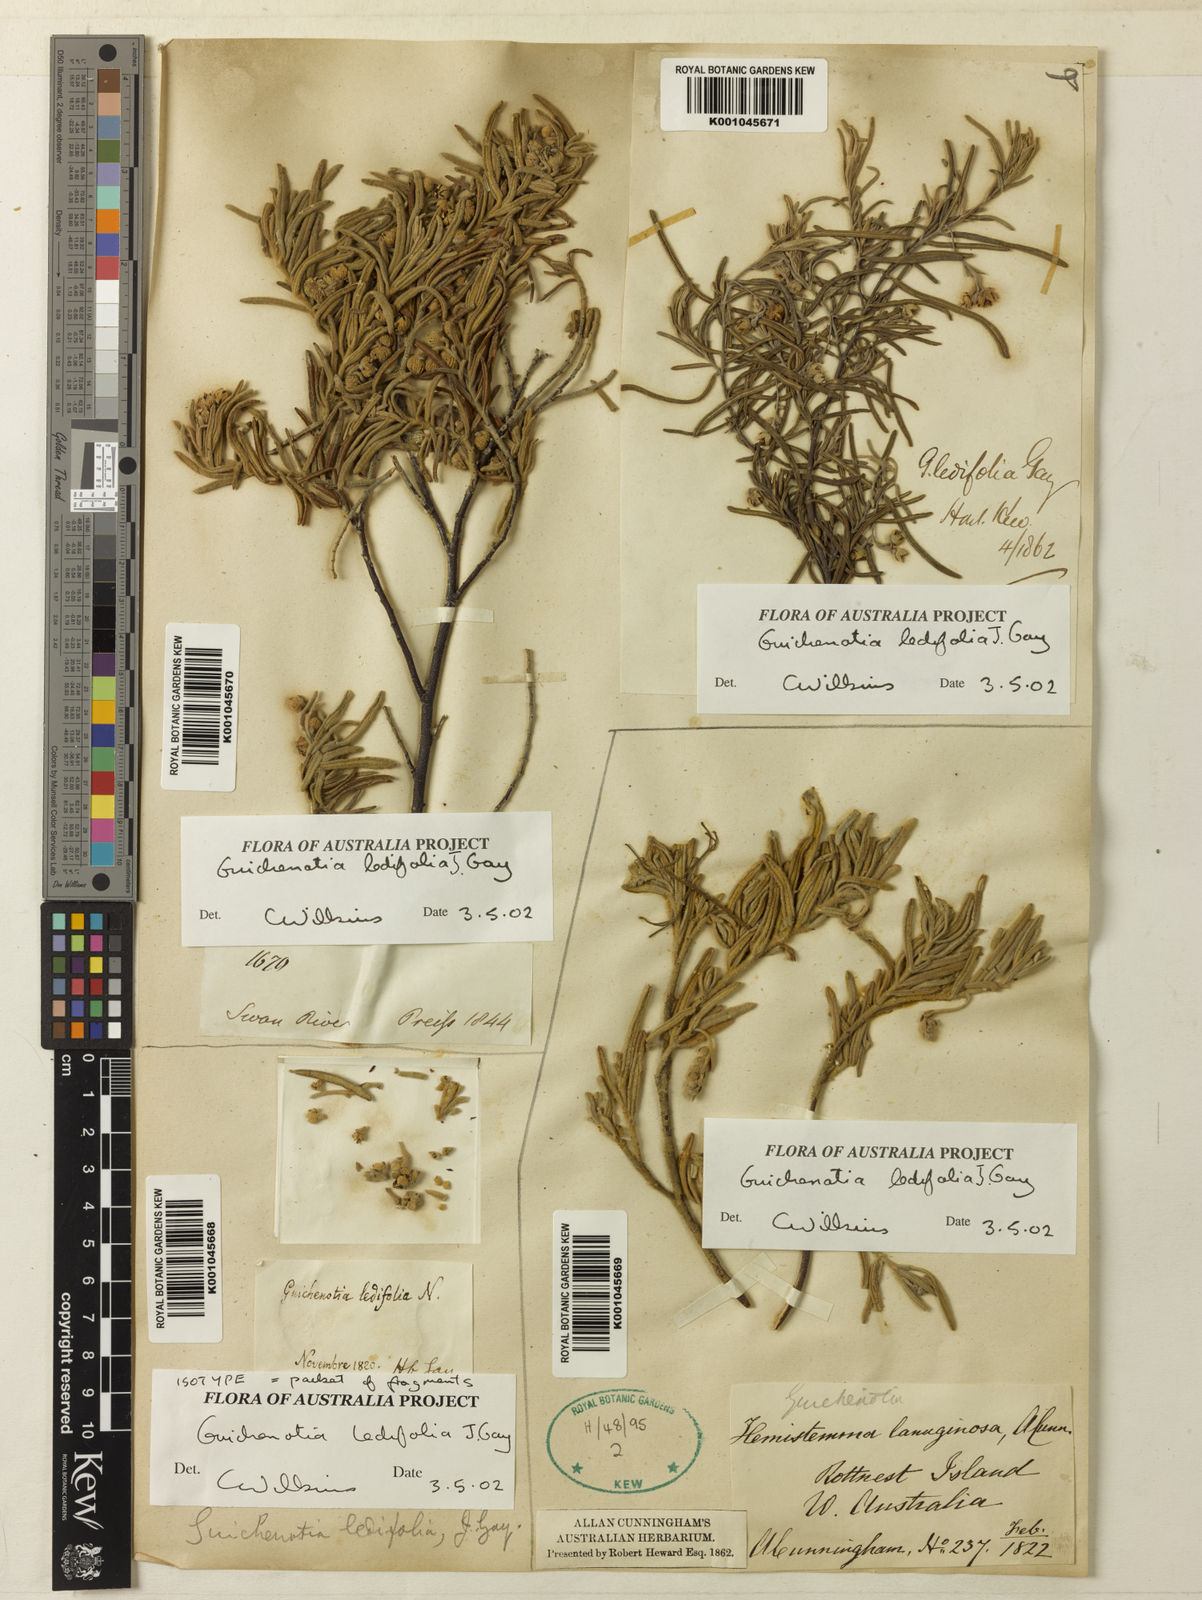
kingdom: Plantae
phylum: Tracheophyta
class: Magnoliopsida
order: Malvales
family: Malvaceae
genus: Guichenotia
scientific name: Guichenotia ledifolia
